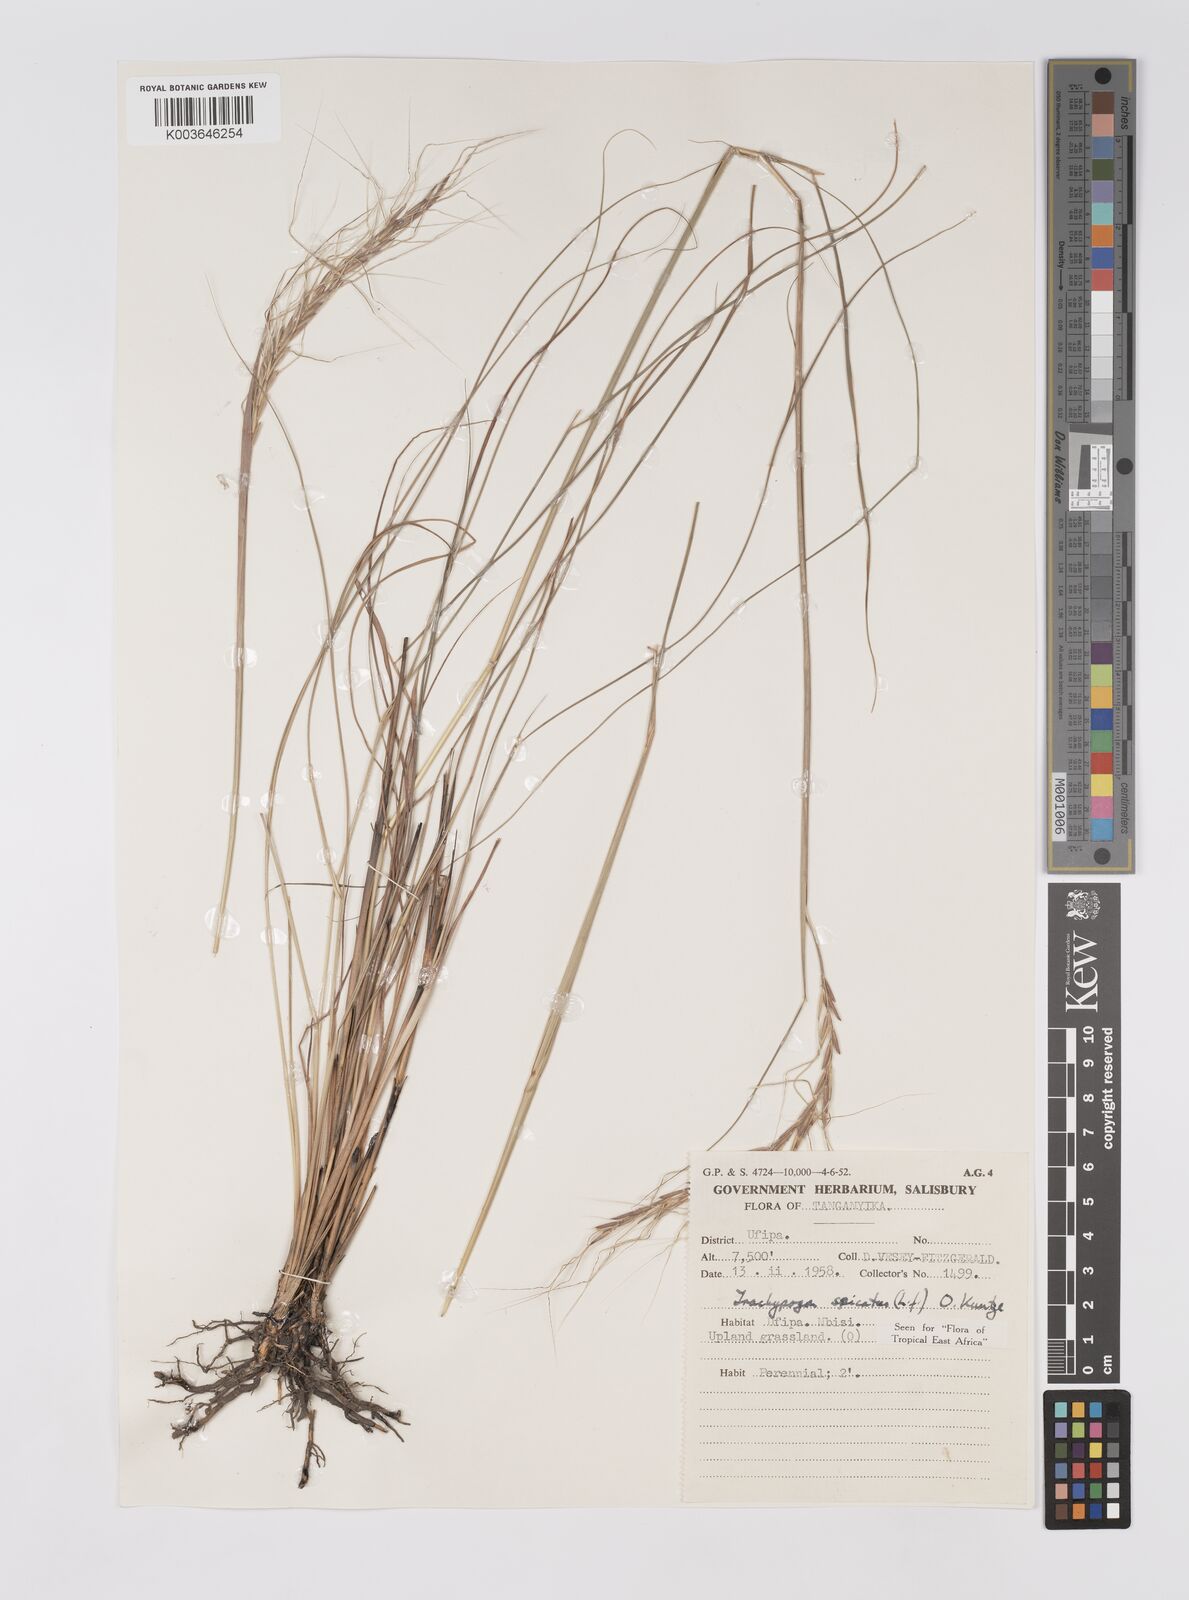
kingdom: Plantae
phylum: Tracheophyta
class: Liliopsida
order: Poales
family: Poaceae
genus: Trachypogon
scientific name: Trachypogon spicatus
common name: Crinkle-awn
